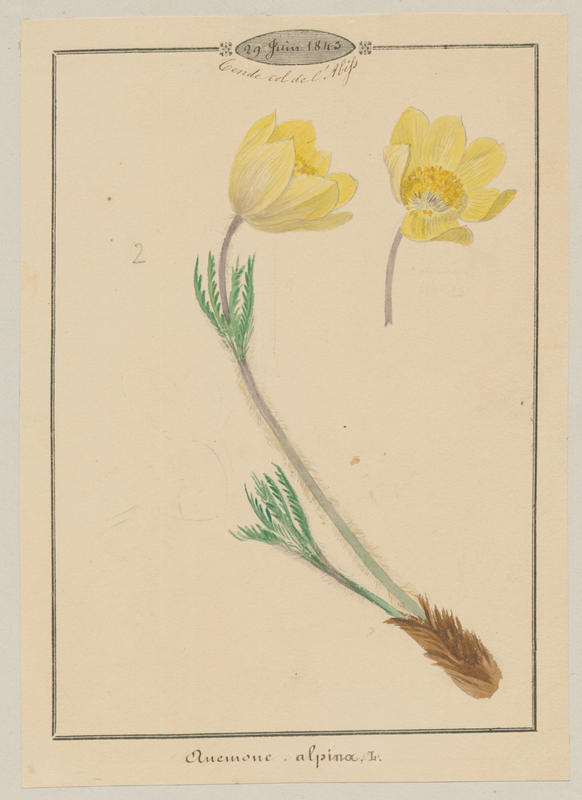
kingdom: Plantae
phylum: Tracheophyta
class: Magnoliopsida
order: Ranunculales
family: Ranunculaceae
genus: Pulsatilla
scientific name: Pulsatilla alpina
